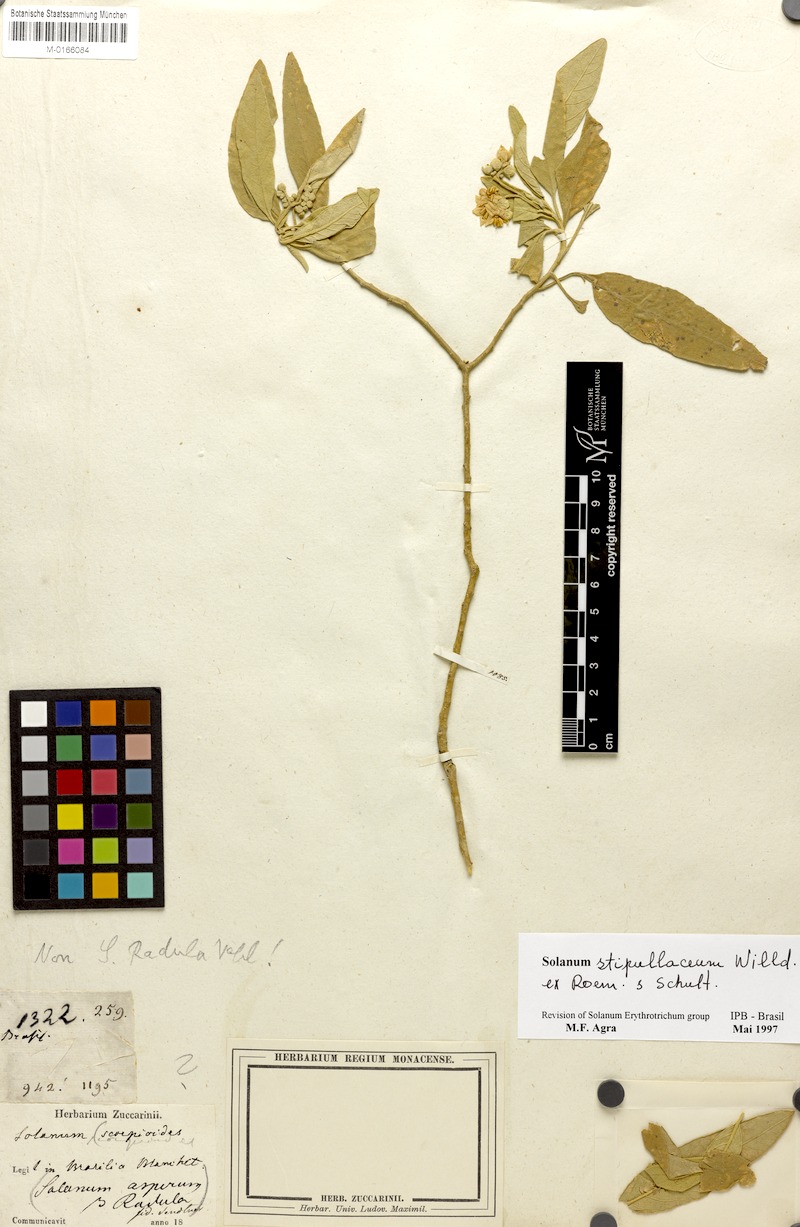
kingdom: Plantae
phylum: Tracheophyta
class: Magnoliopsida
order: Solanales
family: Solanaceae
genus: Solanum
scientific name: Solanum stipulaceum
